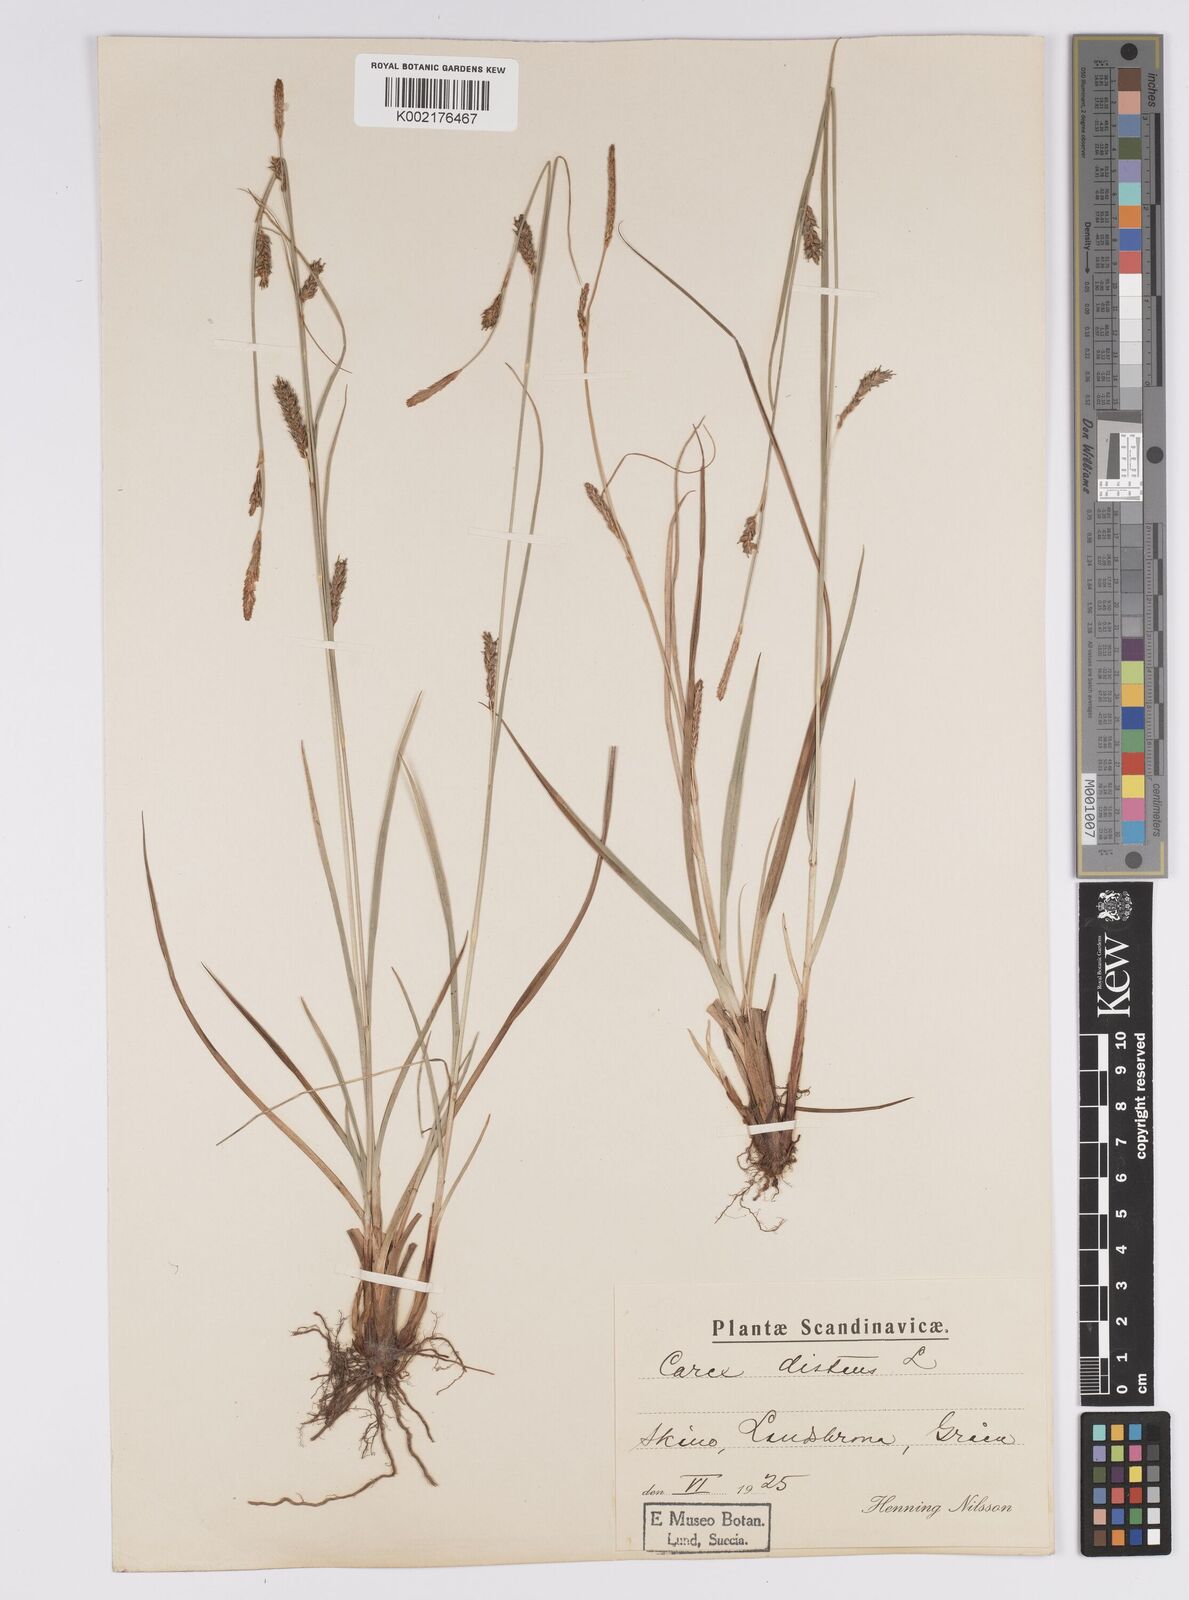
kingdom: Plantae
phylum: Tracheophyta
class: Liliopsida
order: Poales
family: Cyperaceae
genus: Carex
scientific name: Carex distans
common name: Distant sedge
